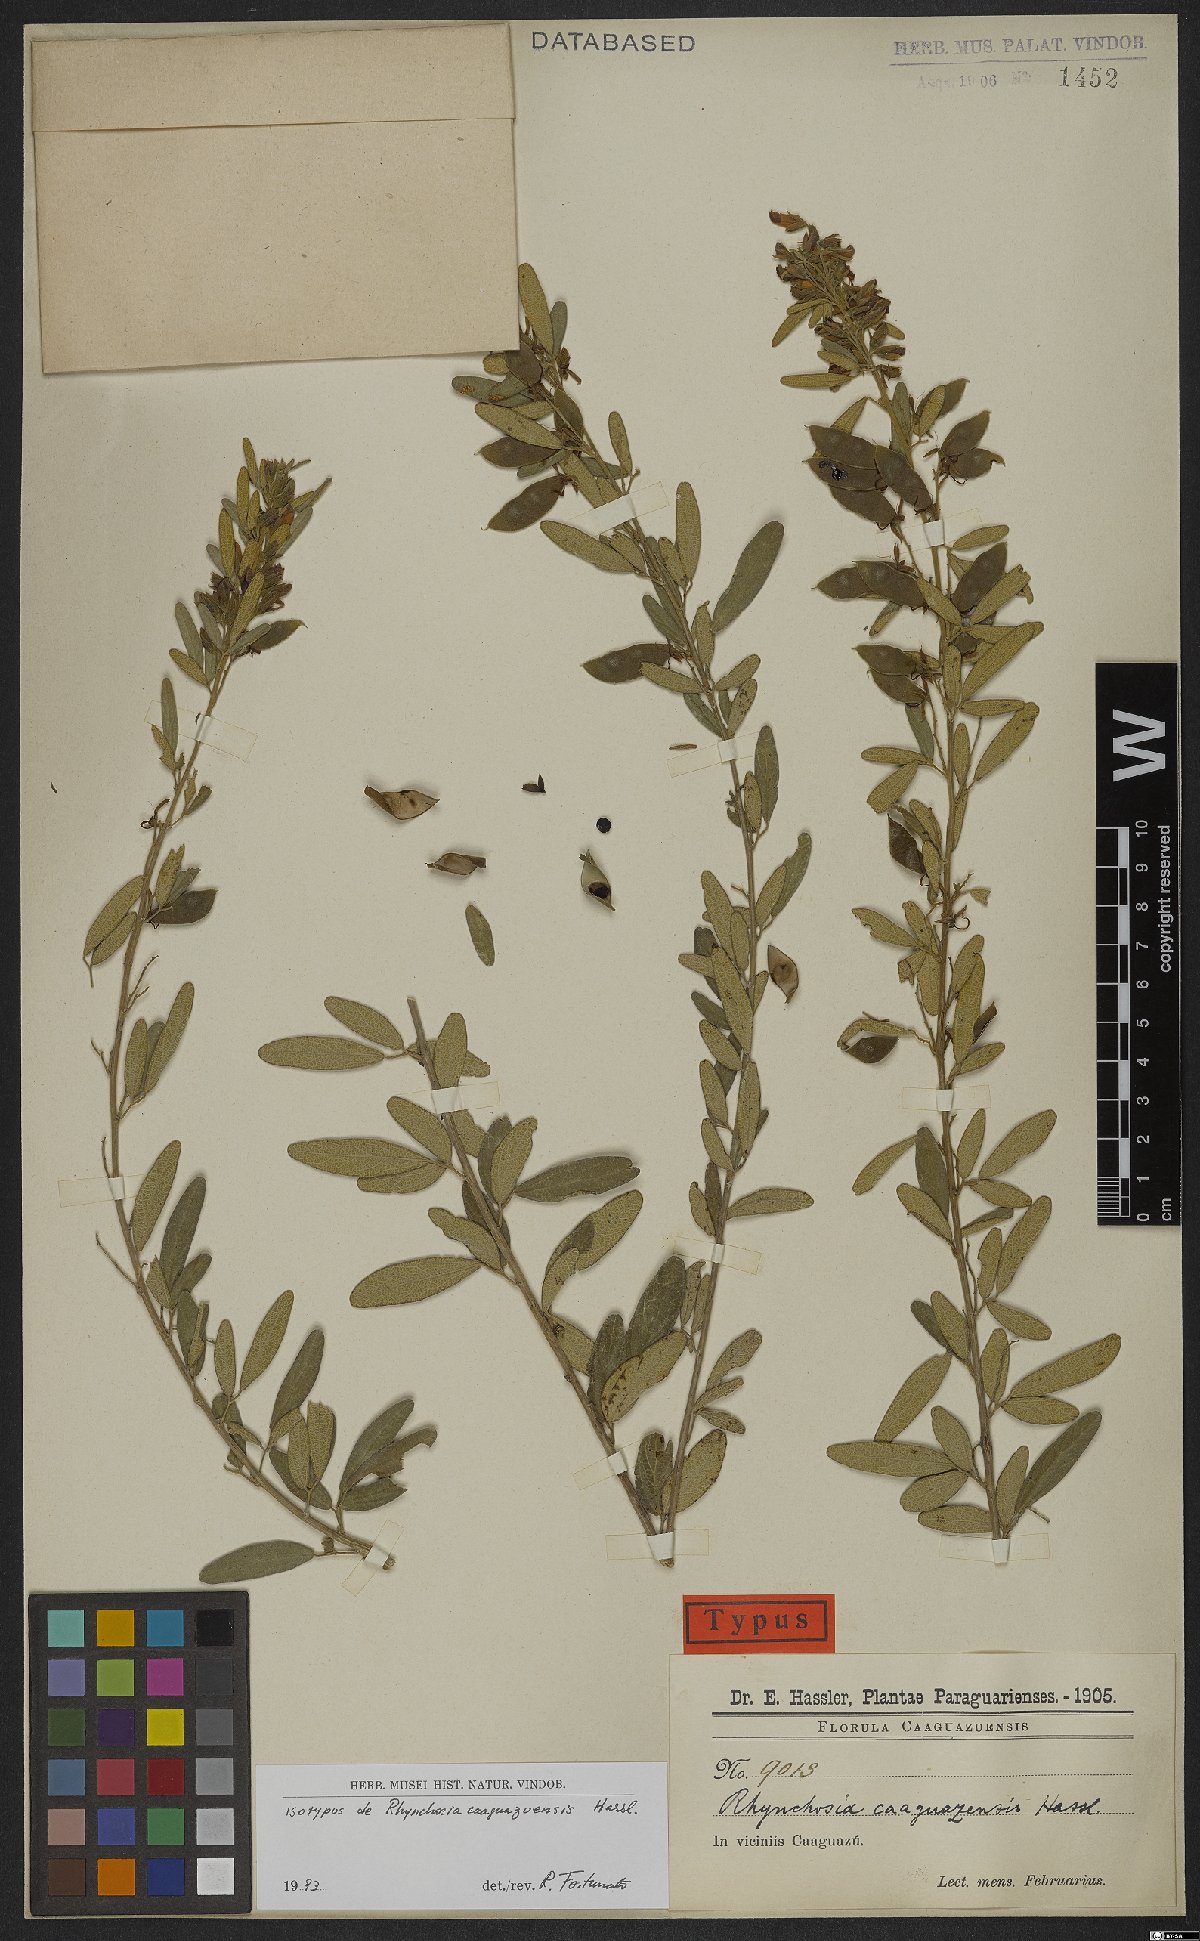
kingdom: Plantae
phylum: Tracheophyta
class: Magnoliopsida
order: Fabales
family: Fabaceae
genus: Rhynchosia
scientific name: Rhynchosia caaguazuensis
